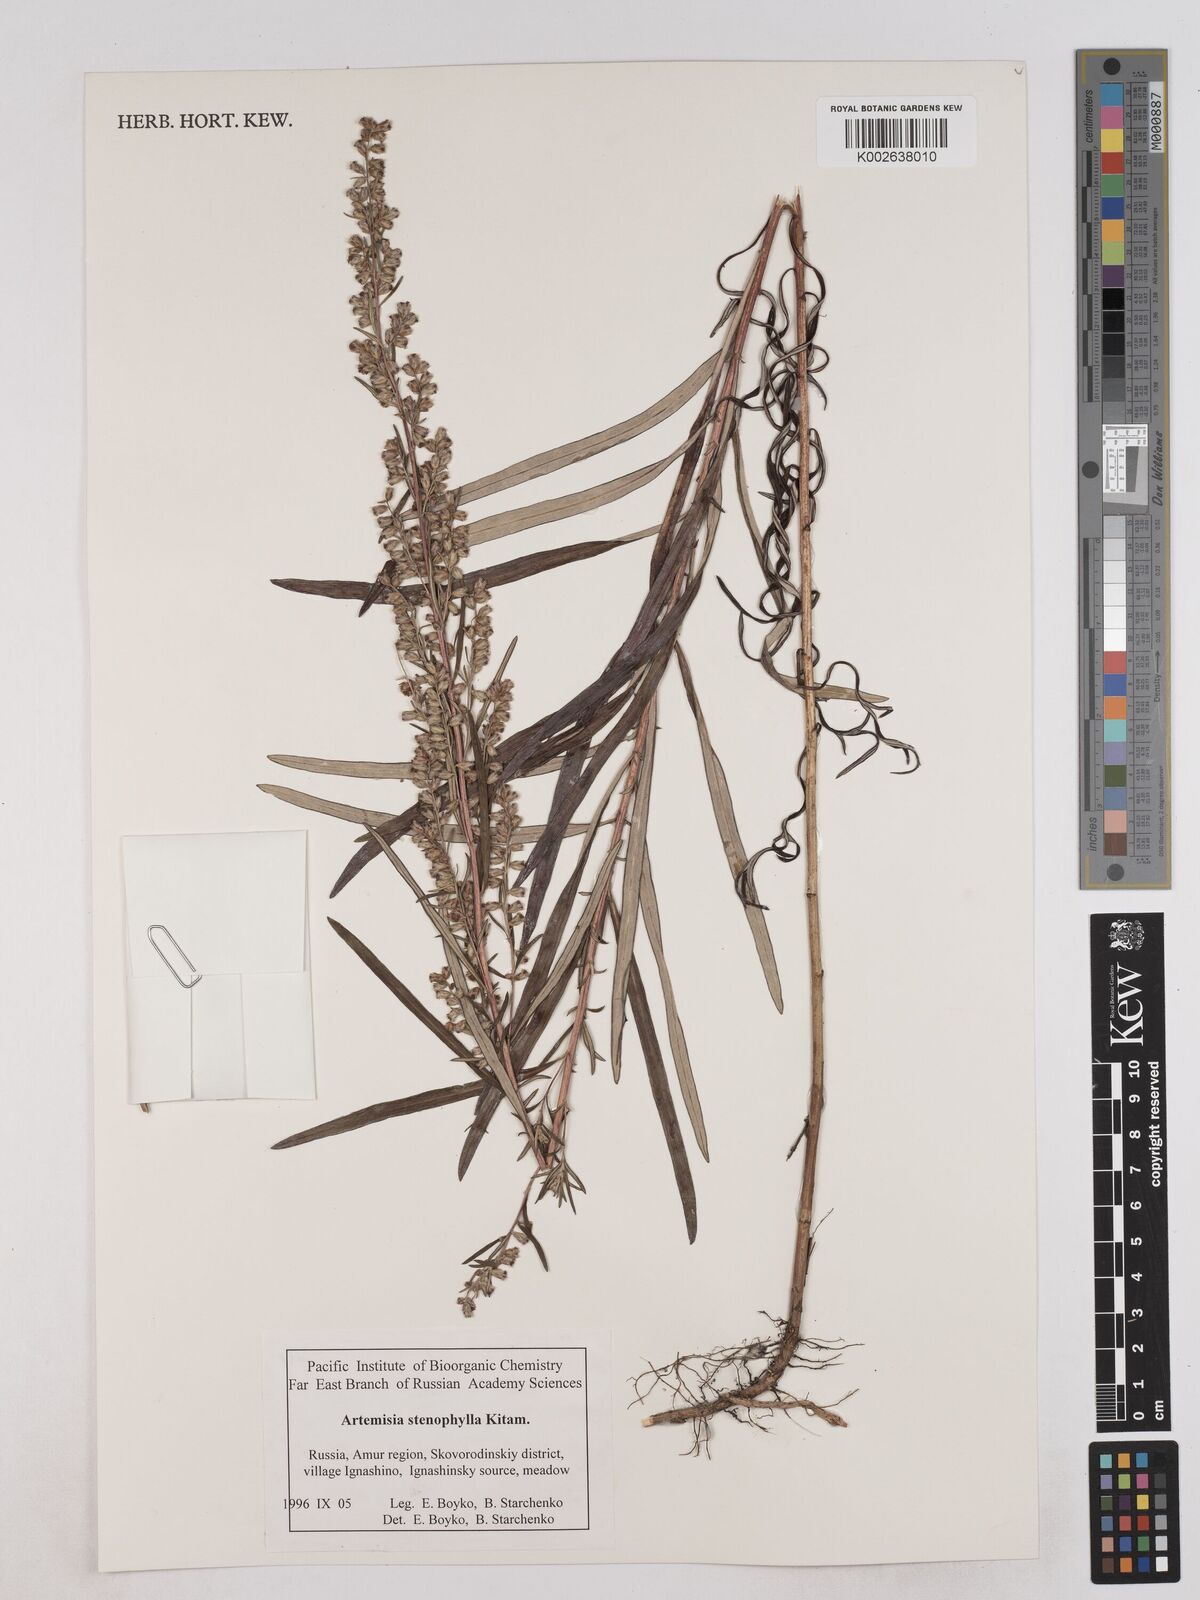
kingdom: Plantae
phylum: Tracheophyta
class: Magnoliopsida
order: Asterales
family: Asteraceae
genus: Artemisia
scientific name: Artemisia subulata
